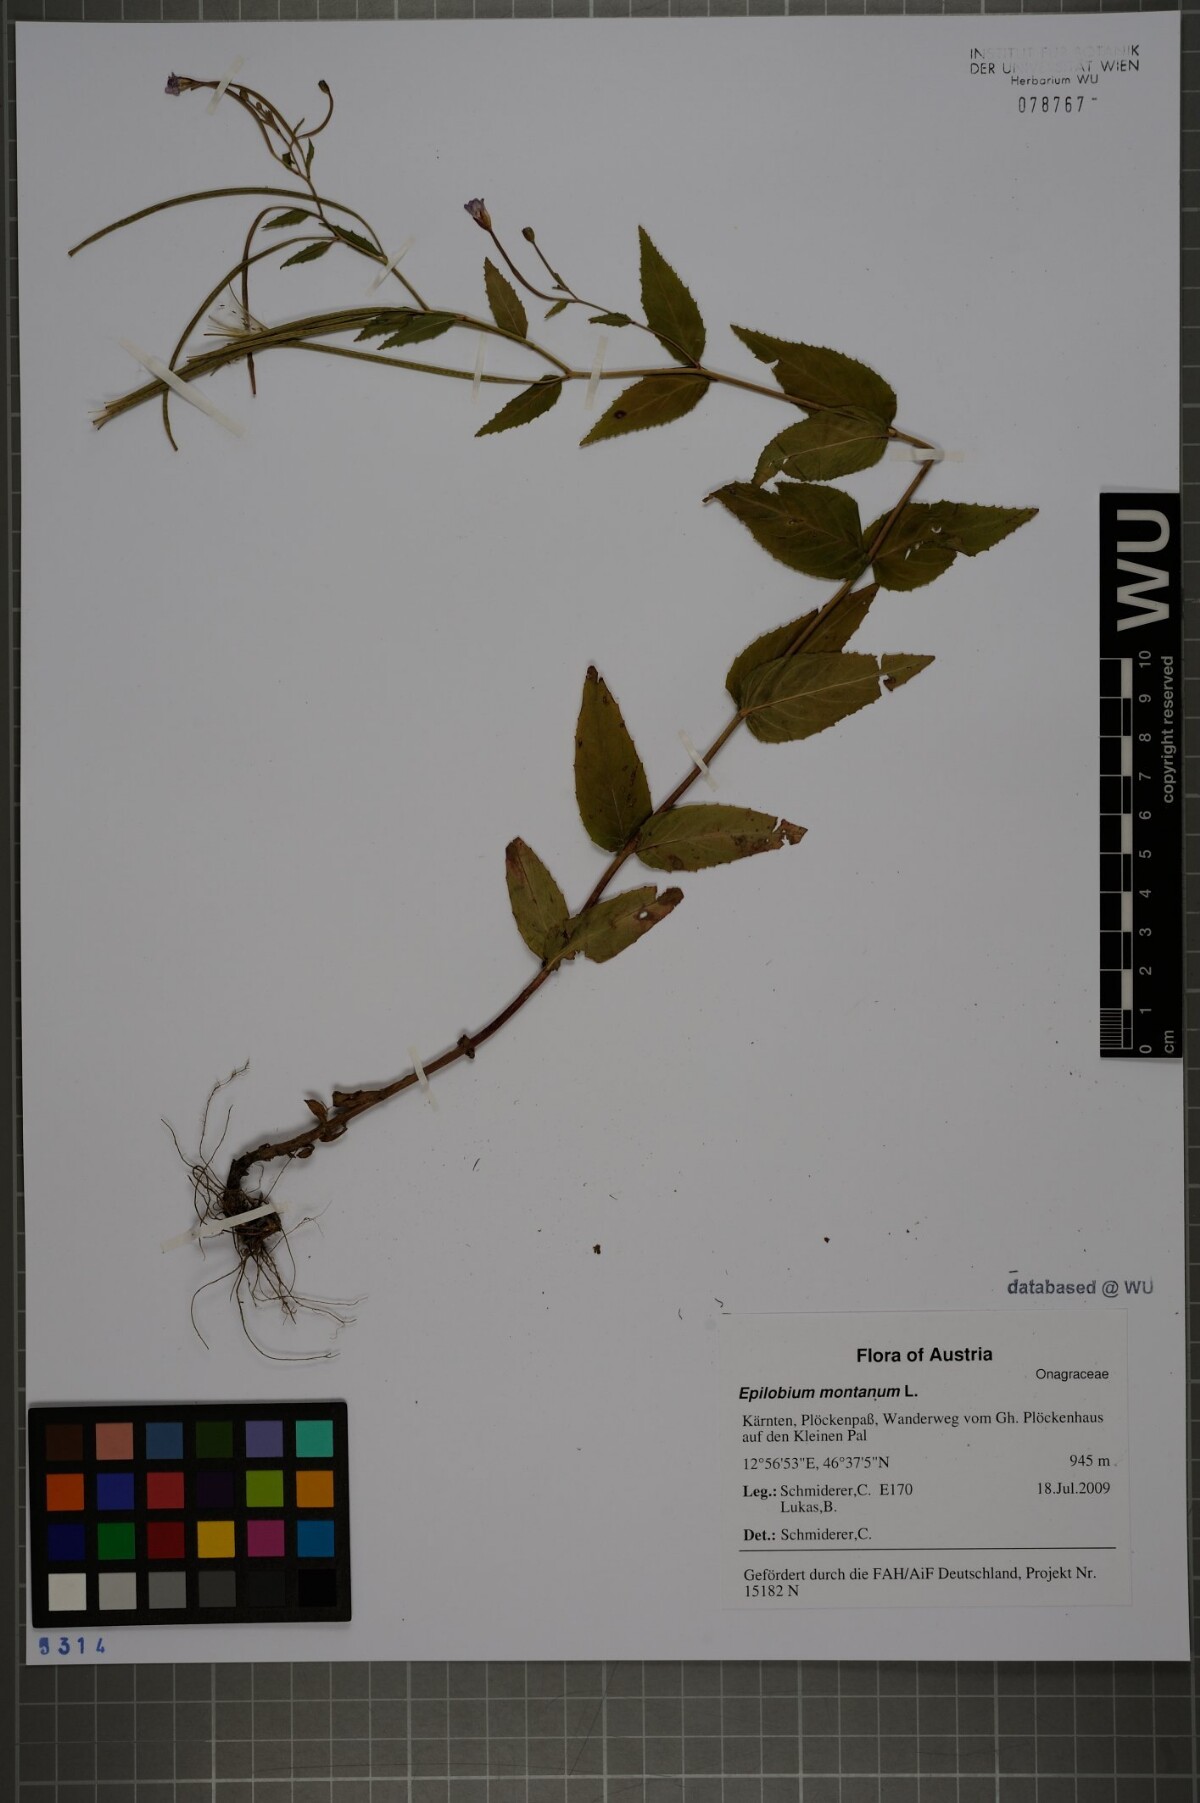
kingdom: Plantae
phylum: Tracheophyta
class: Magnoliopsida
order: Myrtales
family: Onagraceae
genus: Epilobium
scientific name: Epilobium montanum
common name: Broad-leaved willowherb
